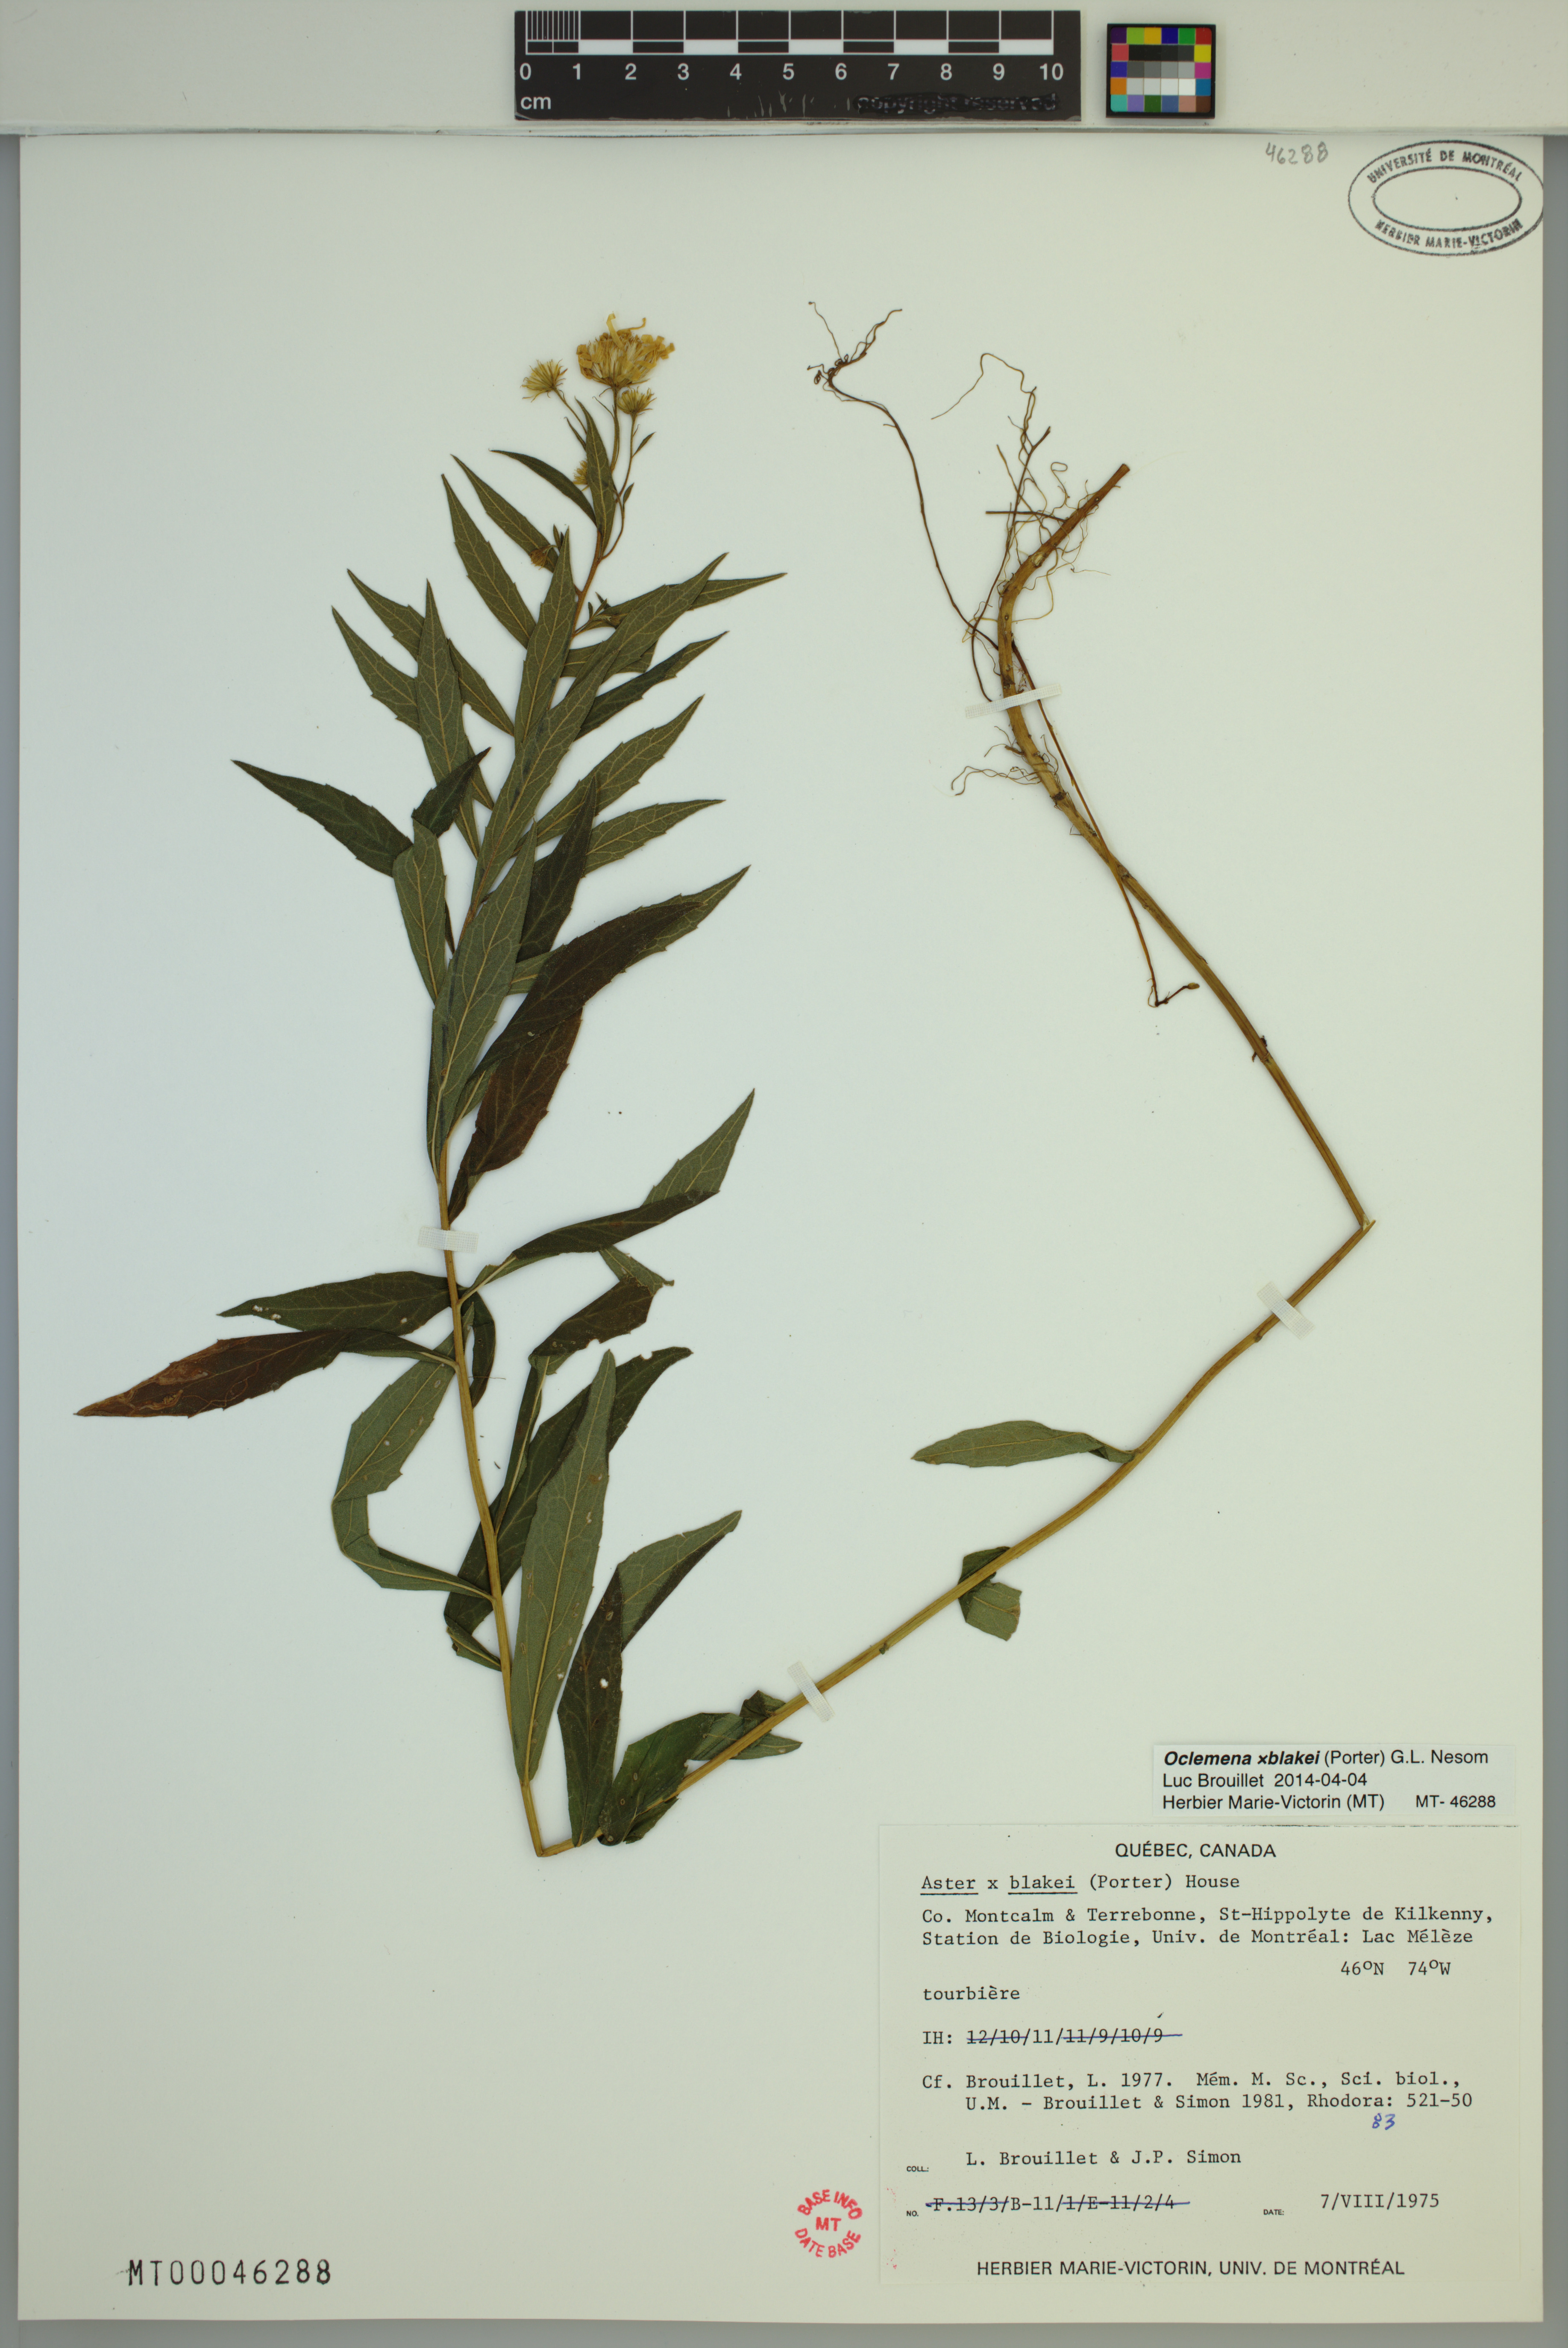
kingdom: Plantae
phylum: Tracheophyta
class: Magnoliopsida
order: Asterales
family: Asteraceae
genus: Oclemena
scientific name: Oclemena blakei
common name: Blake's aster
